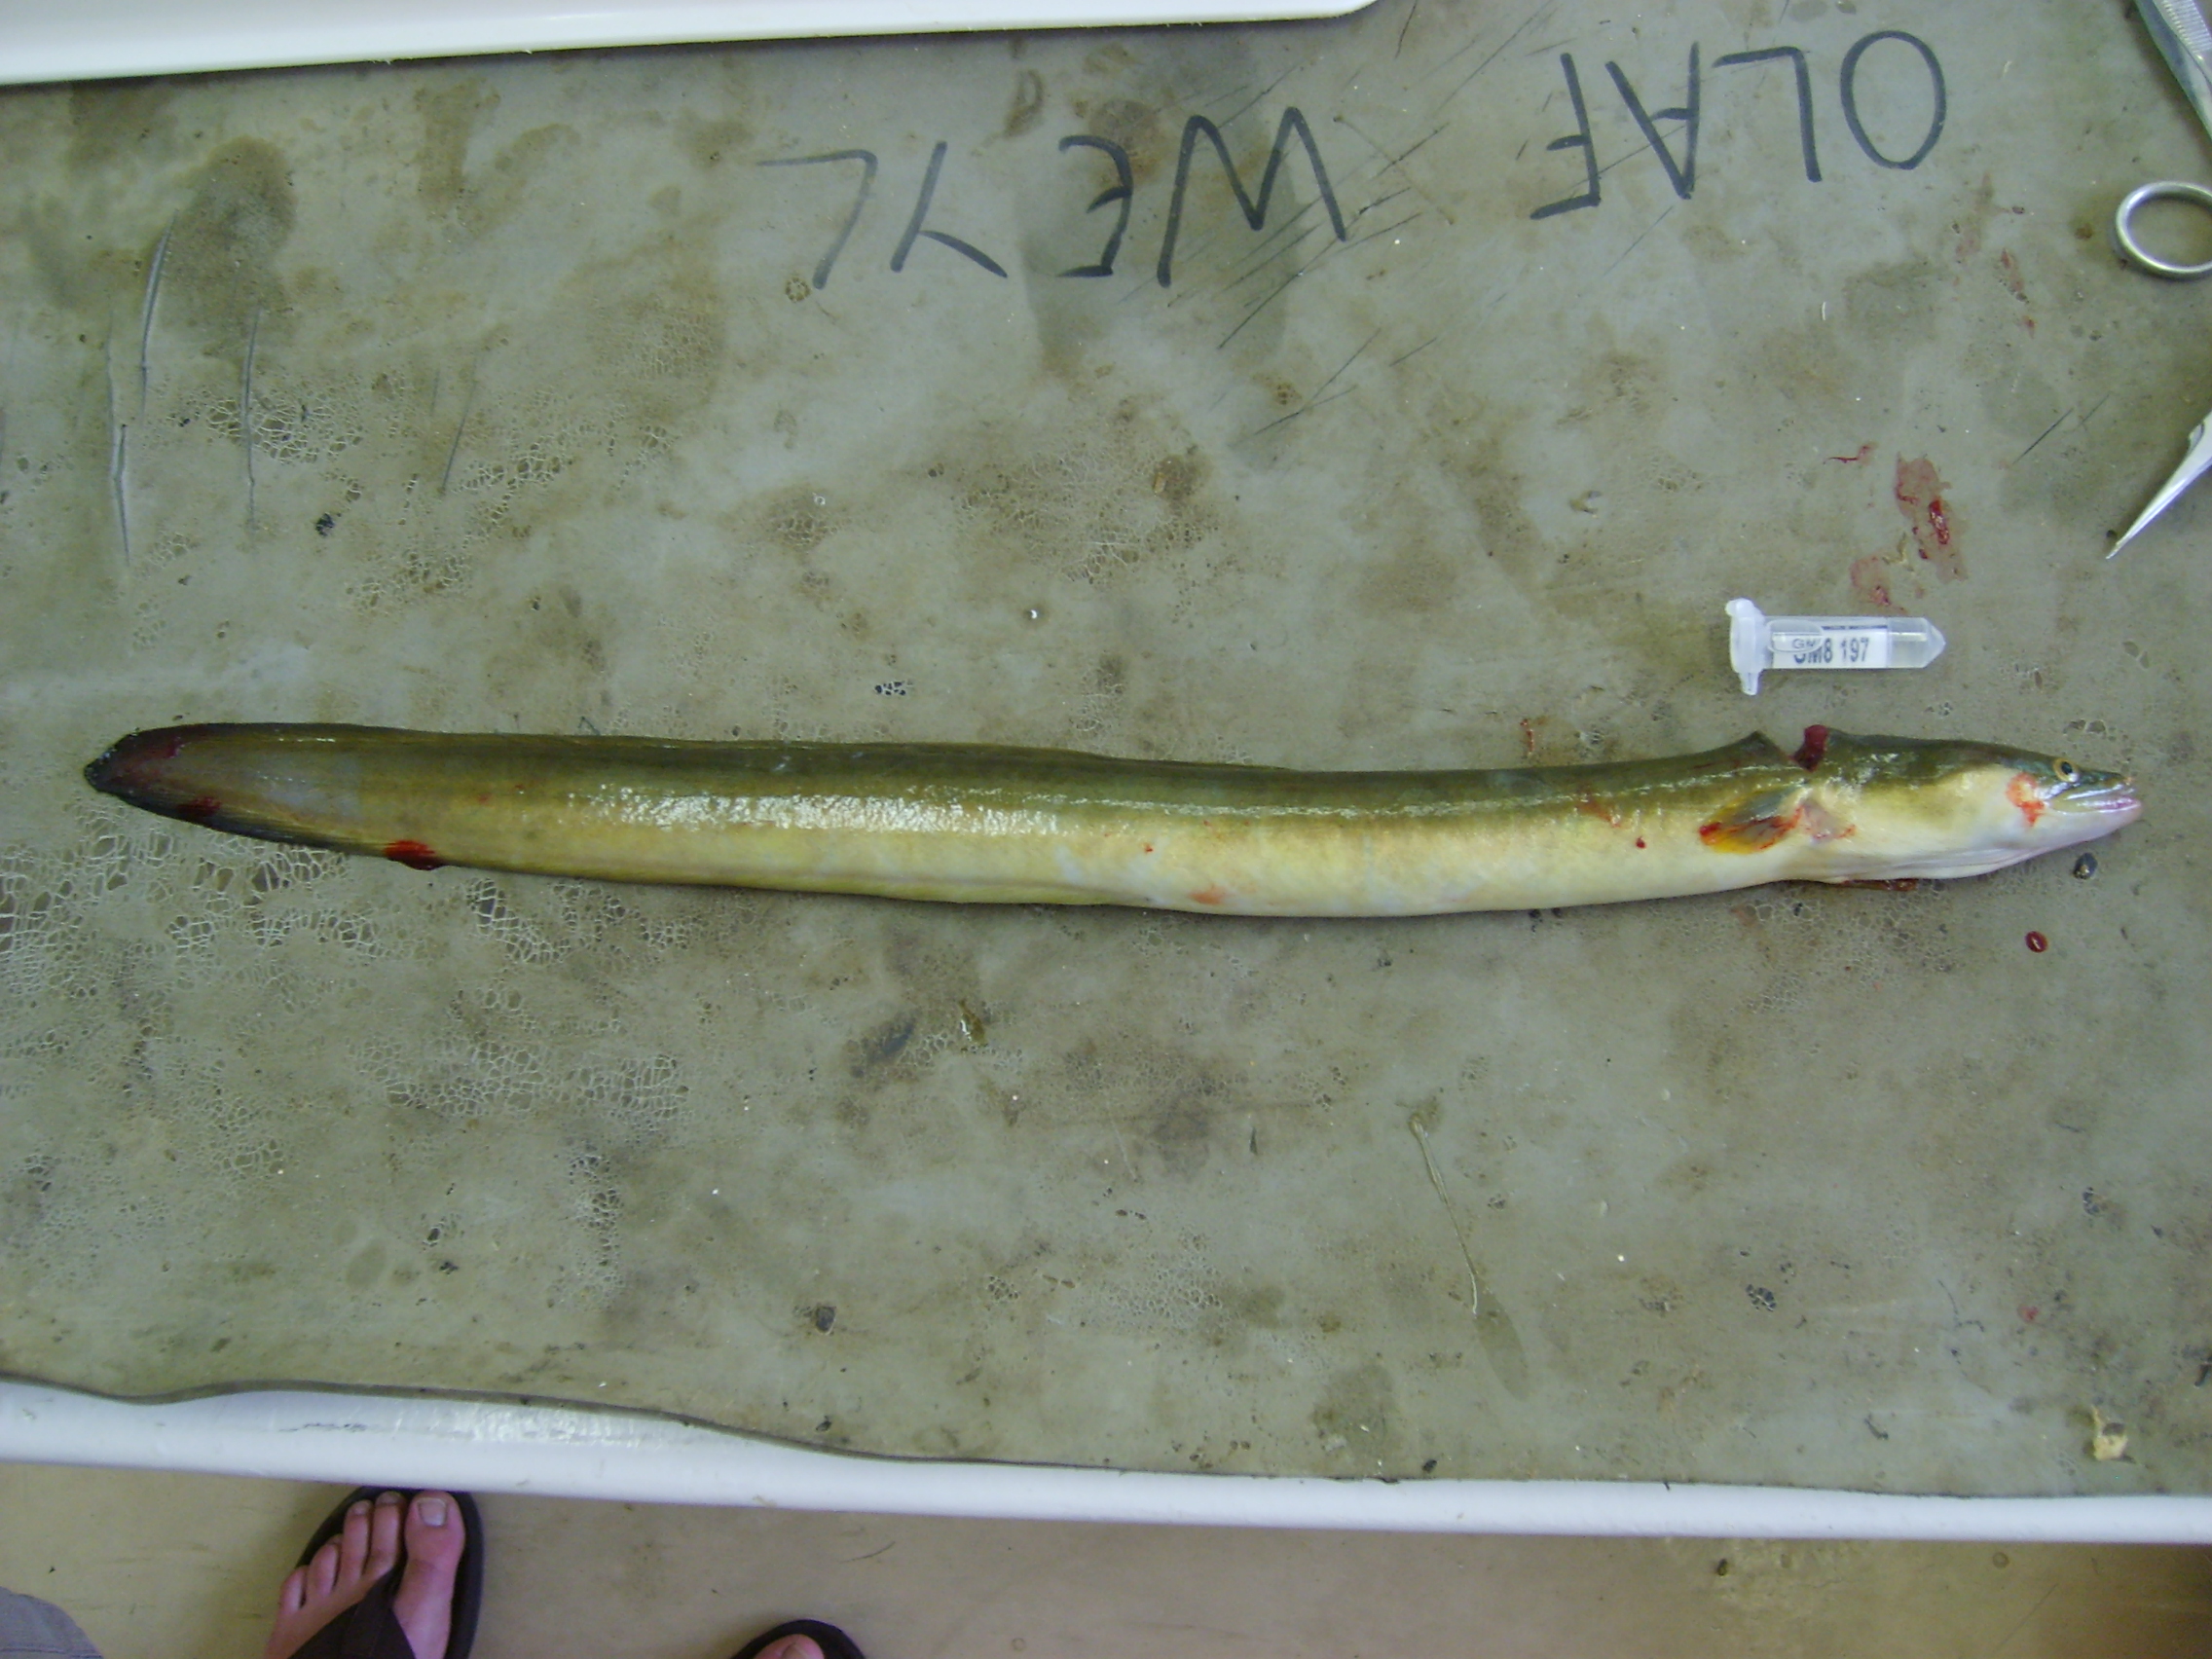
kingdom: Animalia
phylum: Chordata
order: Anguilliformes
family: Anguillidae
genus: Anguilla
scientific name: Anguilla mossambica
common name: African longfin eel
